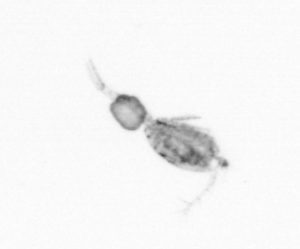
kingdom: Animalia
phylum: Arthropoda
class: Copepoda
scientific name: Copepoda
